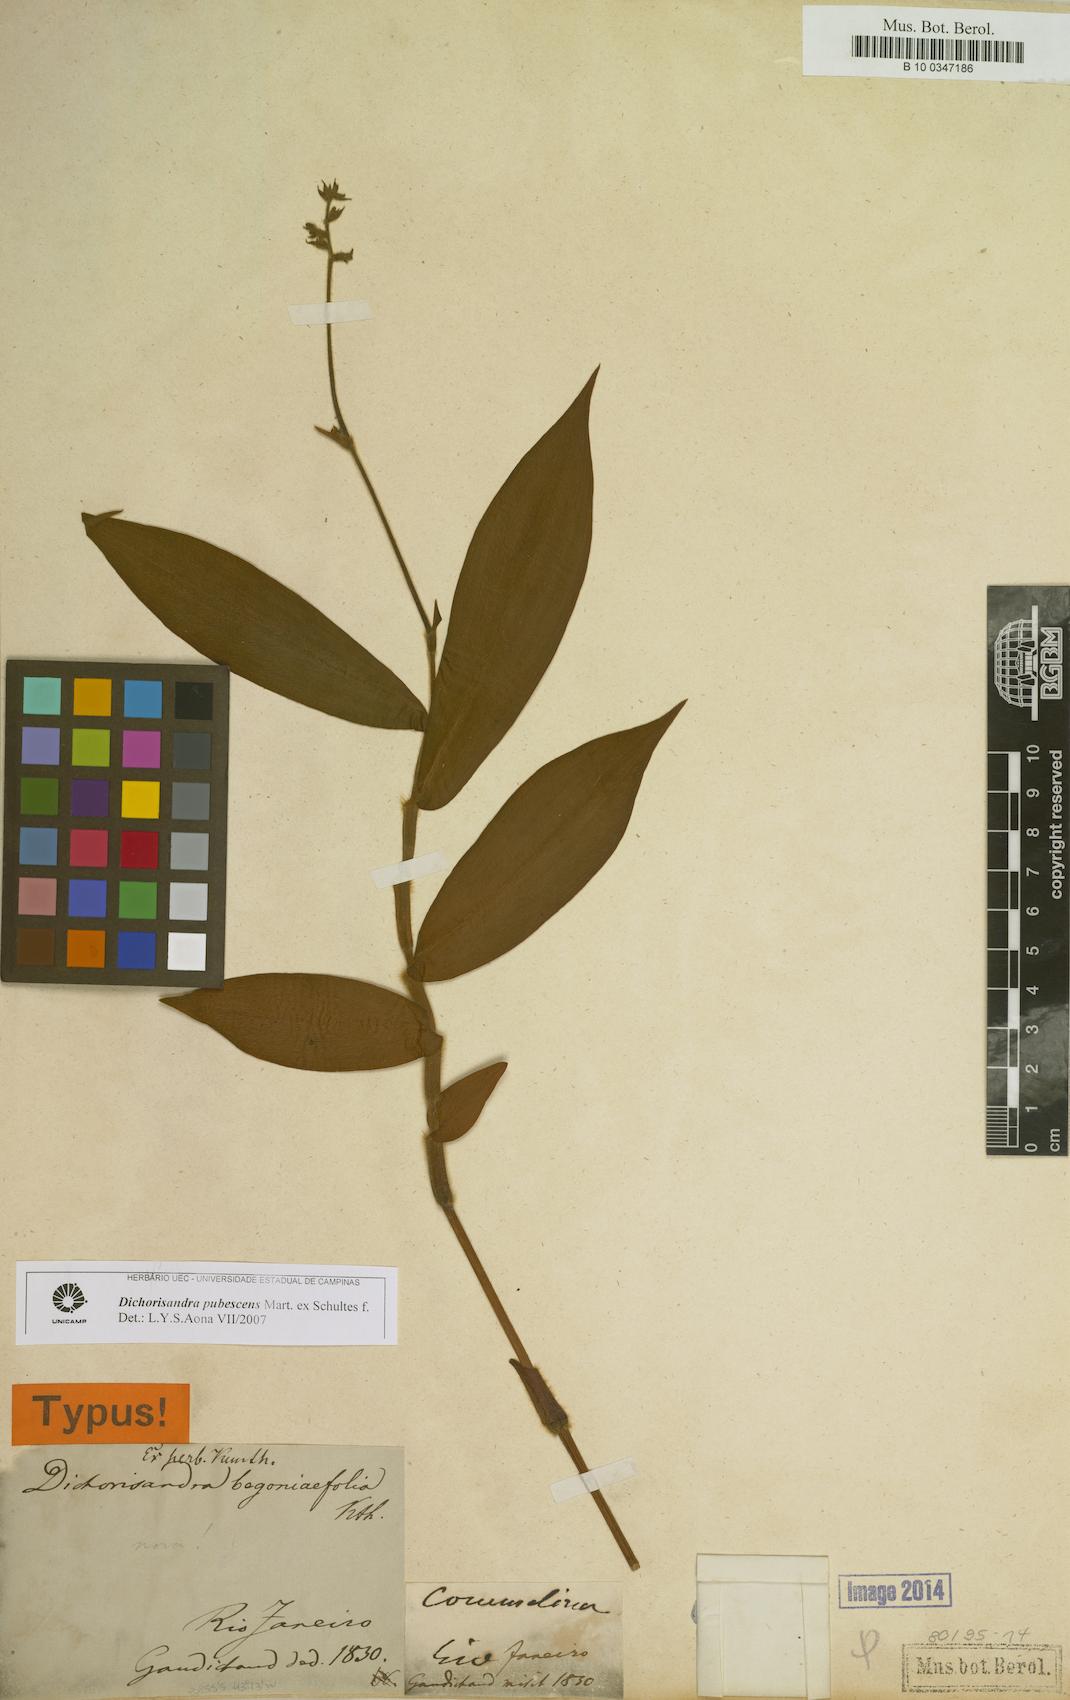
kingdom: Plantae
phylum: Tracheophyta
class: Liliopsida
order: Commelinales
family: Commelinaceae
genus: Dichorisandra
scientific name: Dichorisandra pubescens
